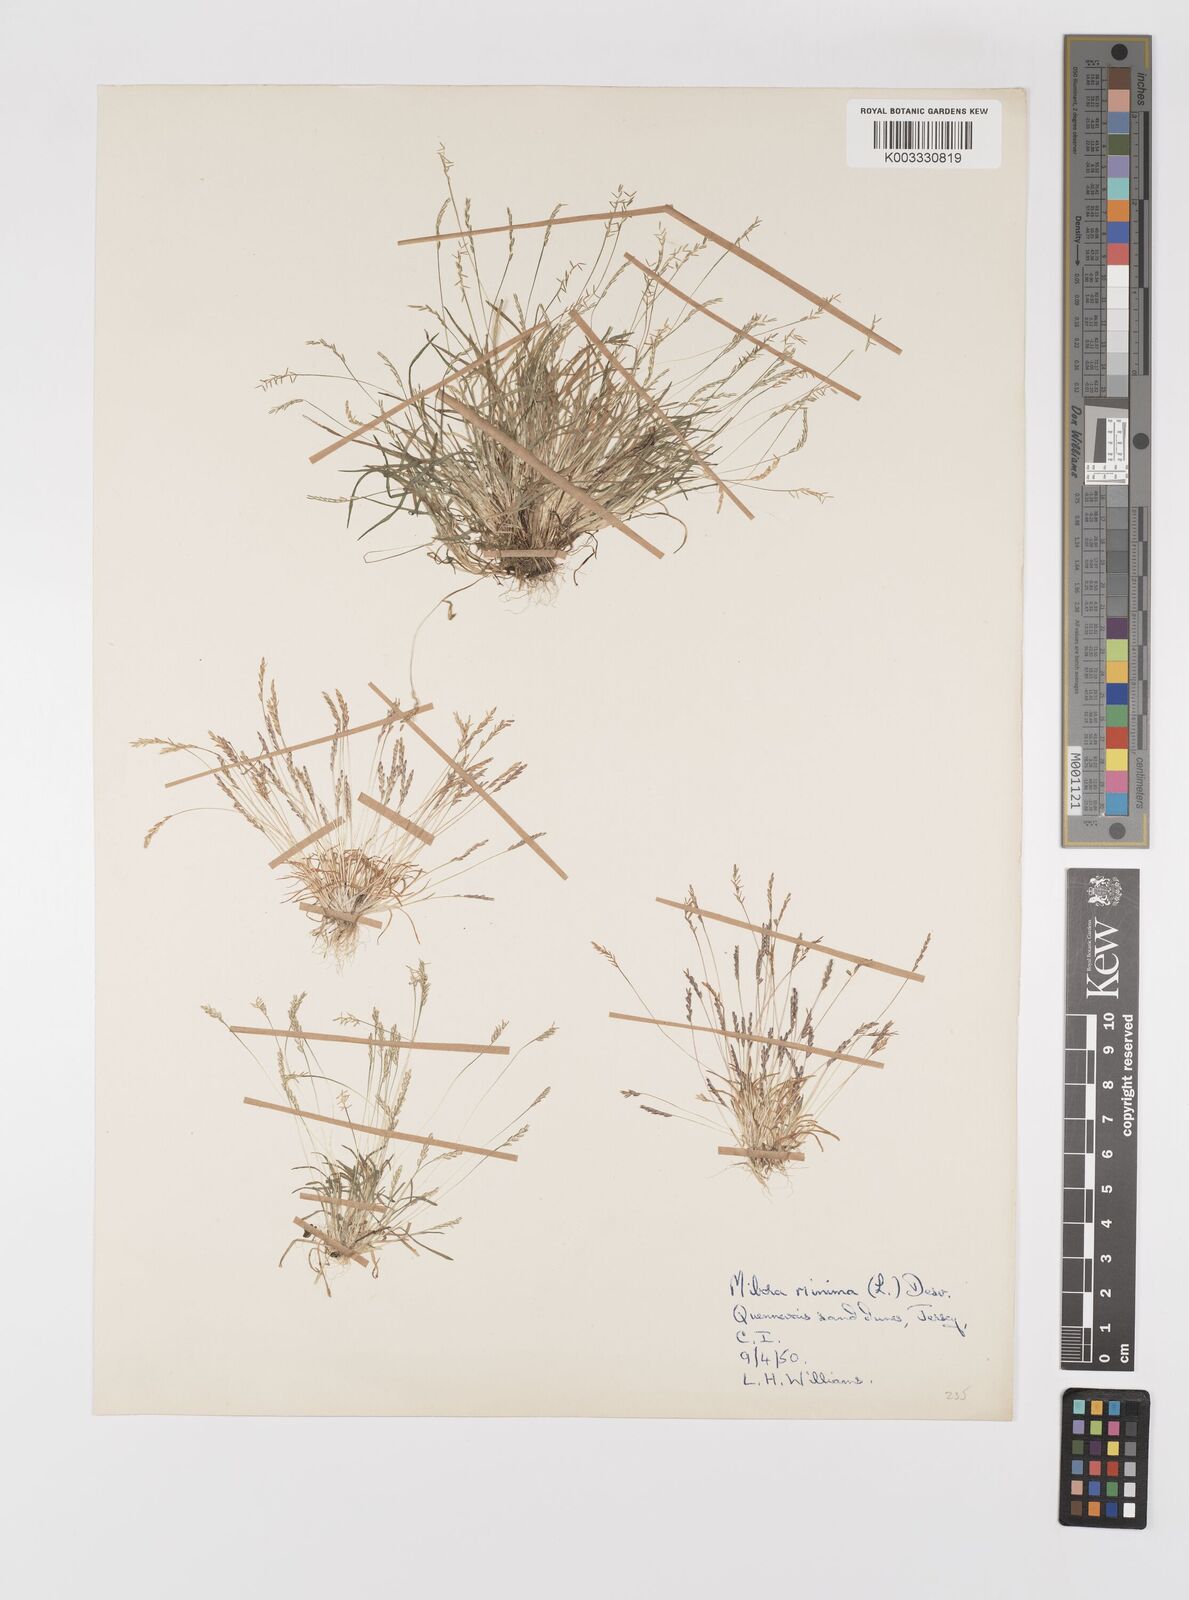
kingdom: Plantae
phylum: Tracheophyta
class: Liliopsida
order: Poales
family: Poaceae
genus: Mibora
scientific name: Mibora minima
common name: Early sand-grass
